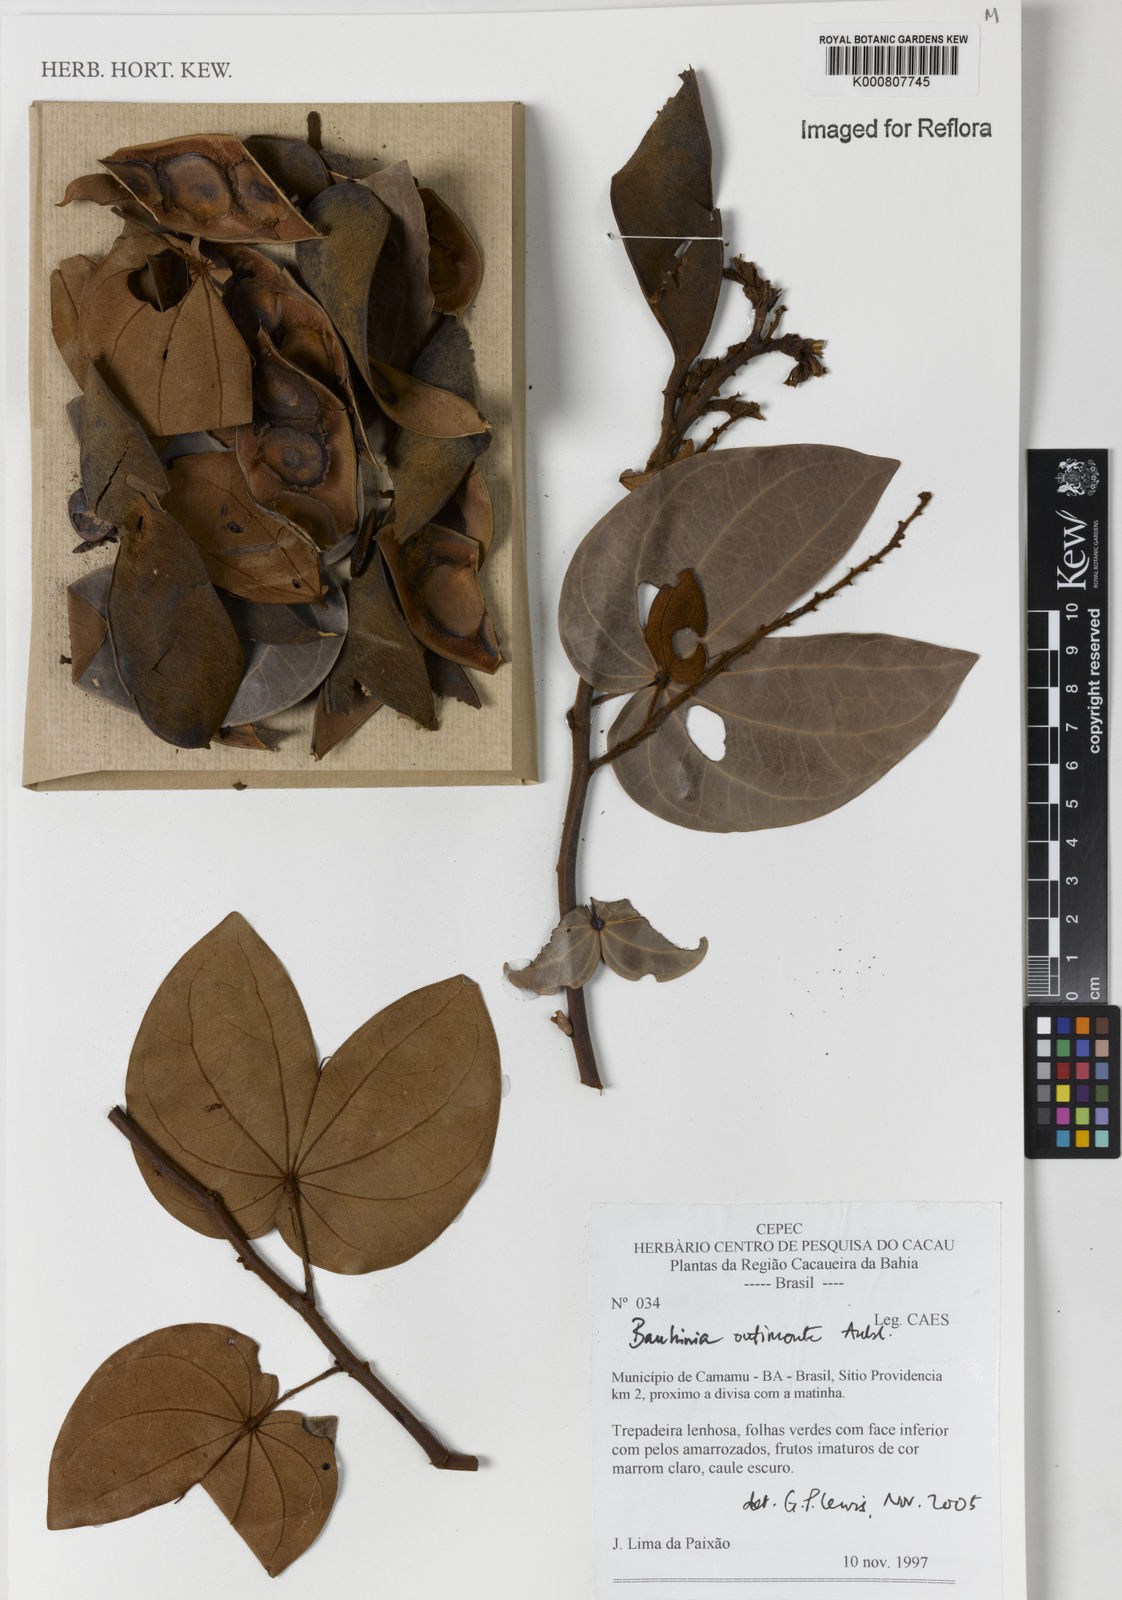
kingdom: Plantae
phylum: Tracheophyta
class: Magnoliopsida
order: Fabales
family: Fabaceae
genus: Schnella
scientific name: Schnella outimouta
